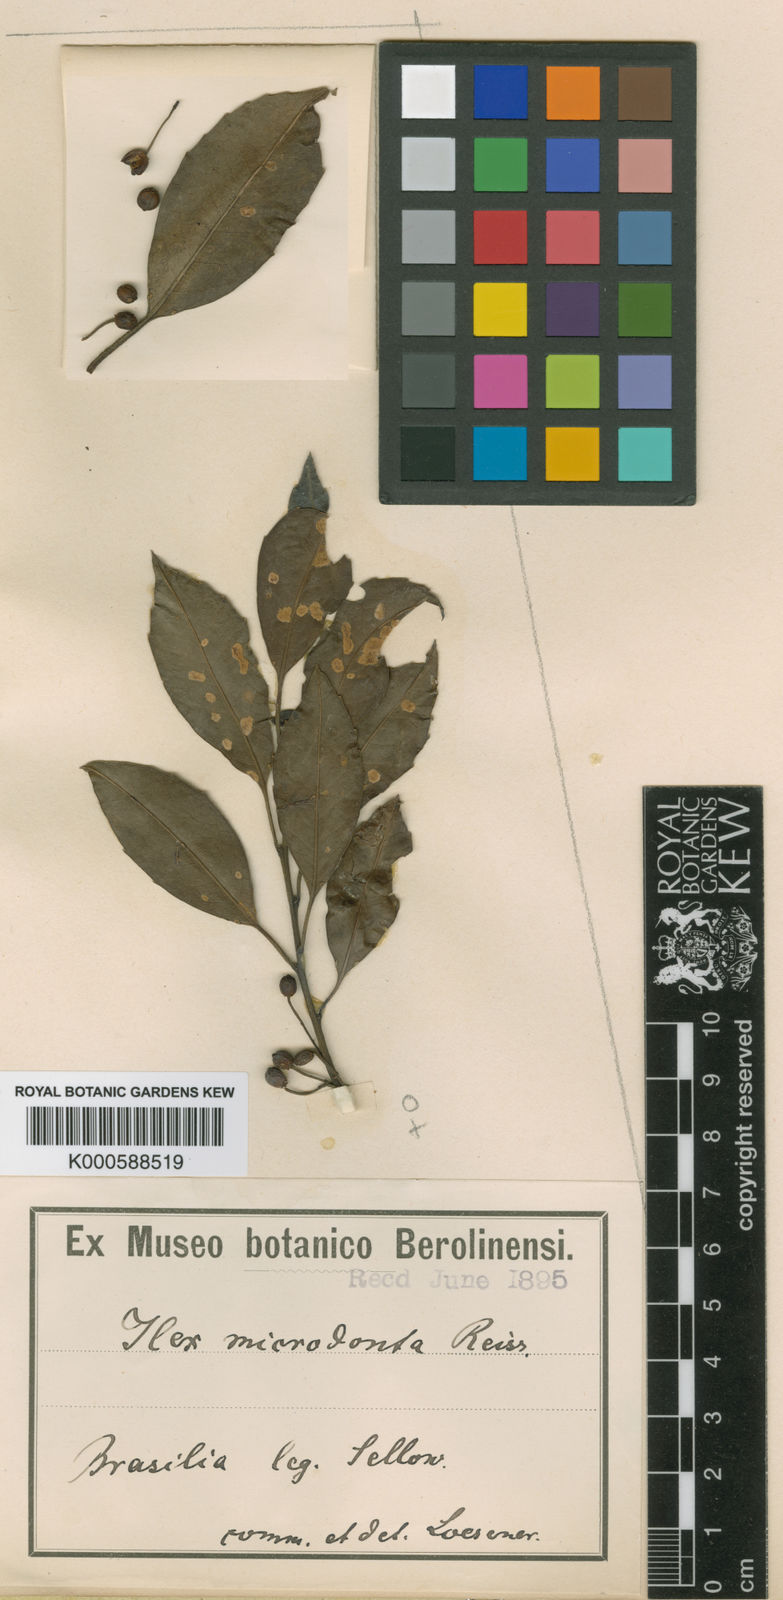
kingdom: Plantae
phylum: Tracheophyta
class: Magnoliopsida
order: Aquifoliales
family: Aquifoliaceae
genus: Ilex
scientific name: Ilex microdonta
